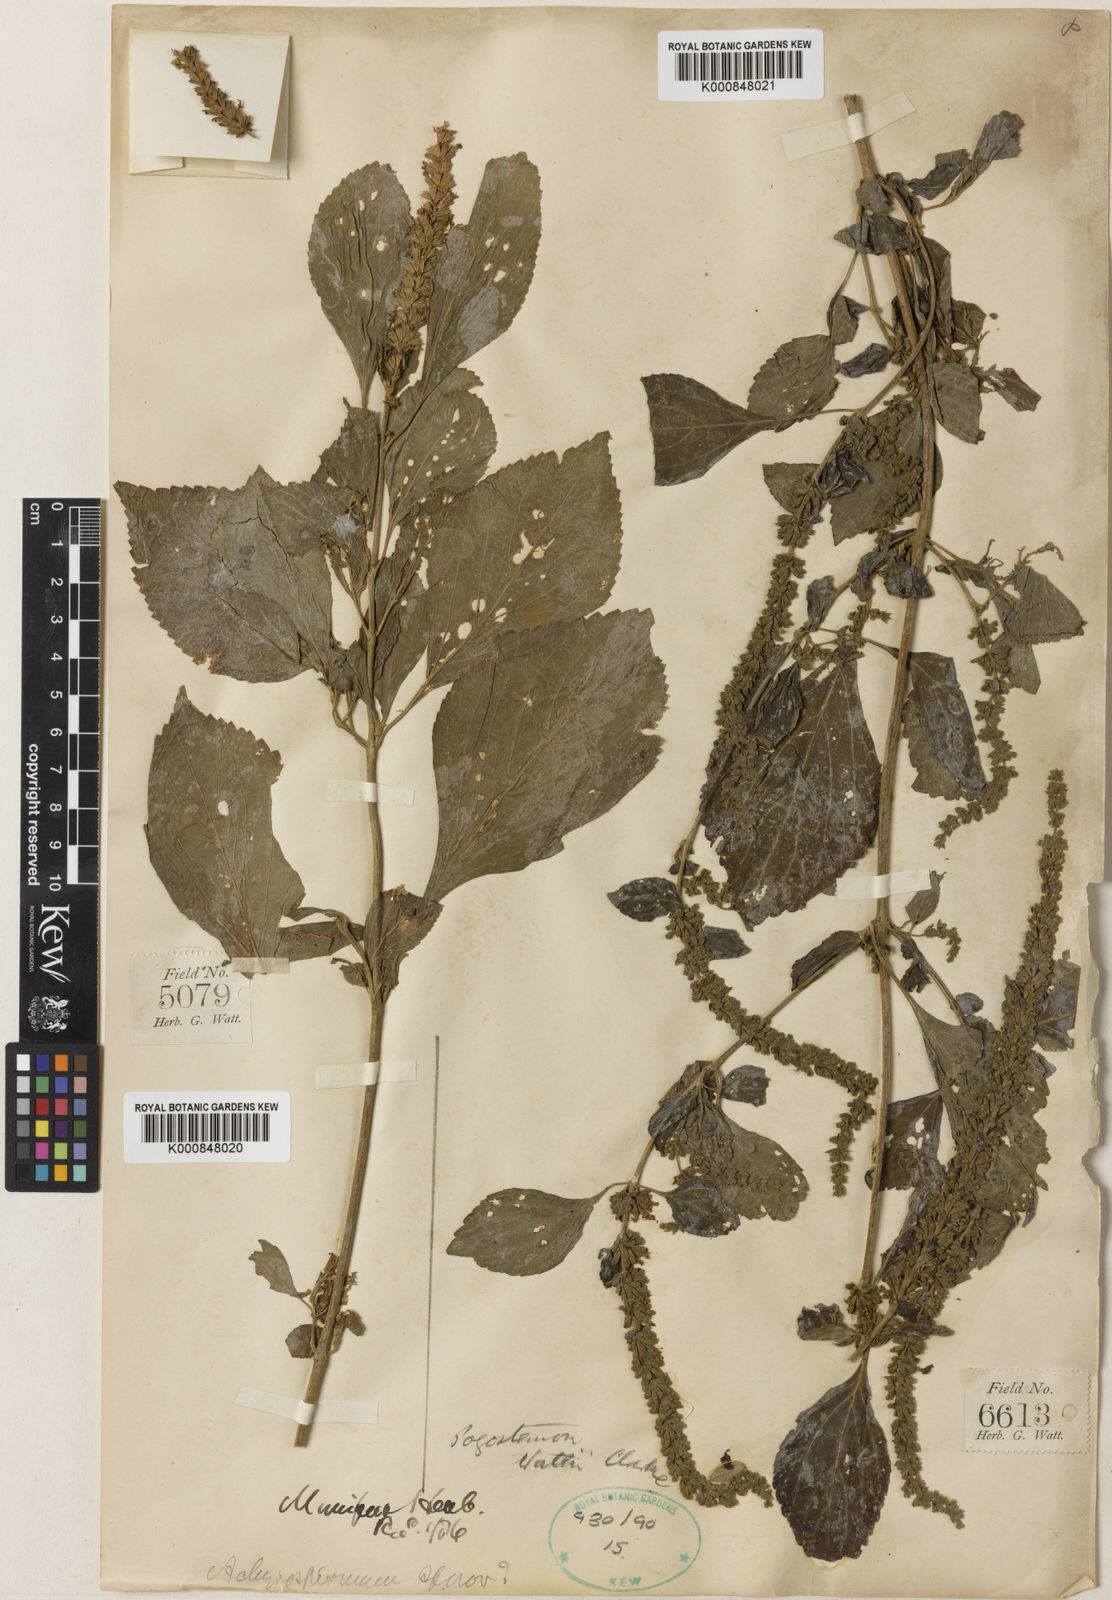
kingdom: Plantae
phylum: Tracheophyta
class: Magnoliopsida
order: Lamiales
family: Lamiaceae
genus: Pogostemon
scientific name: Pogostemon wattii
